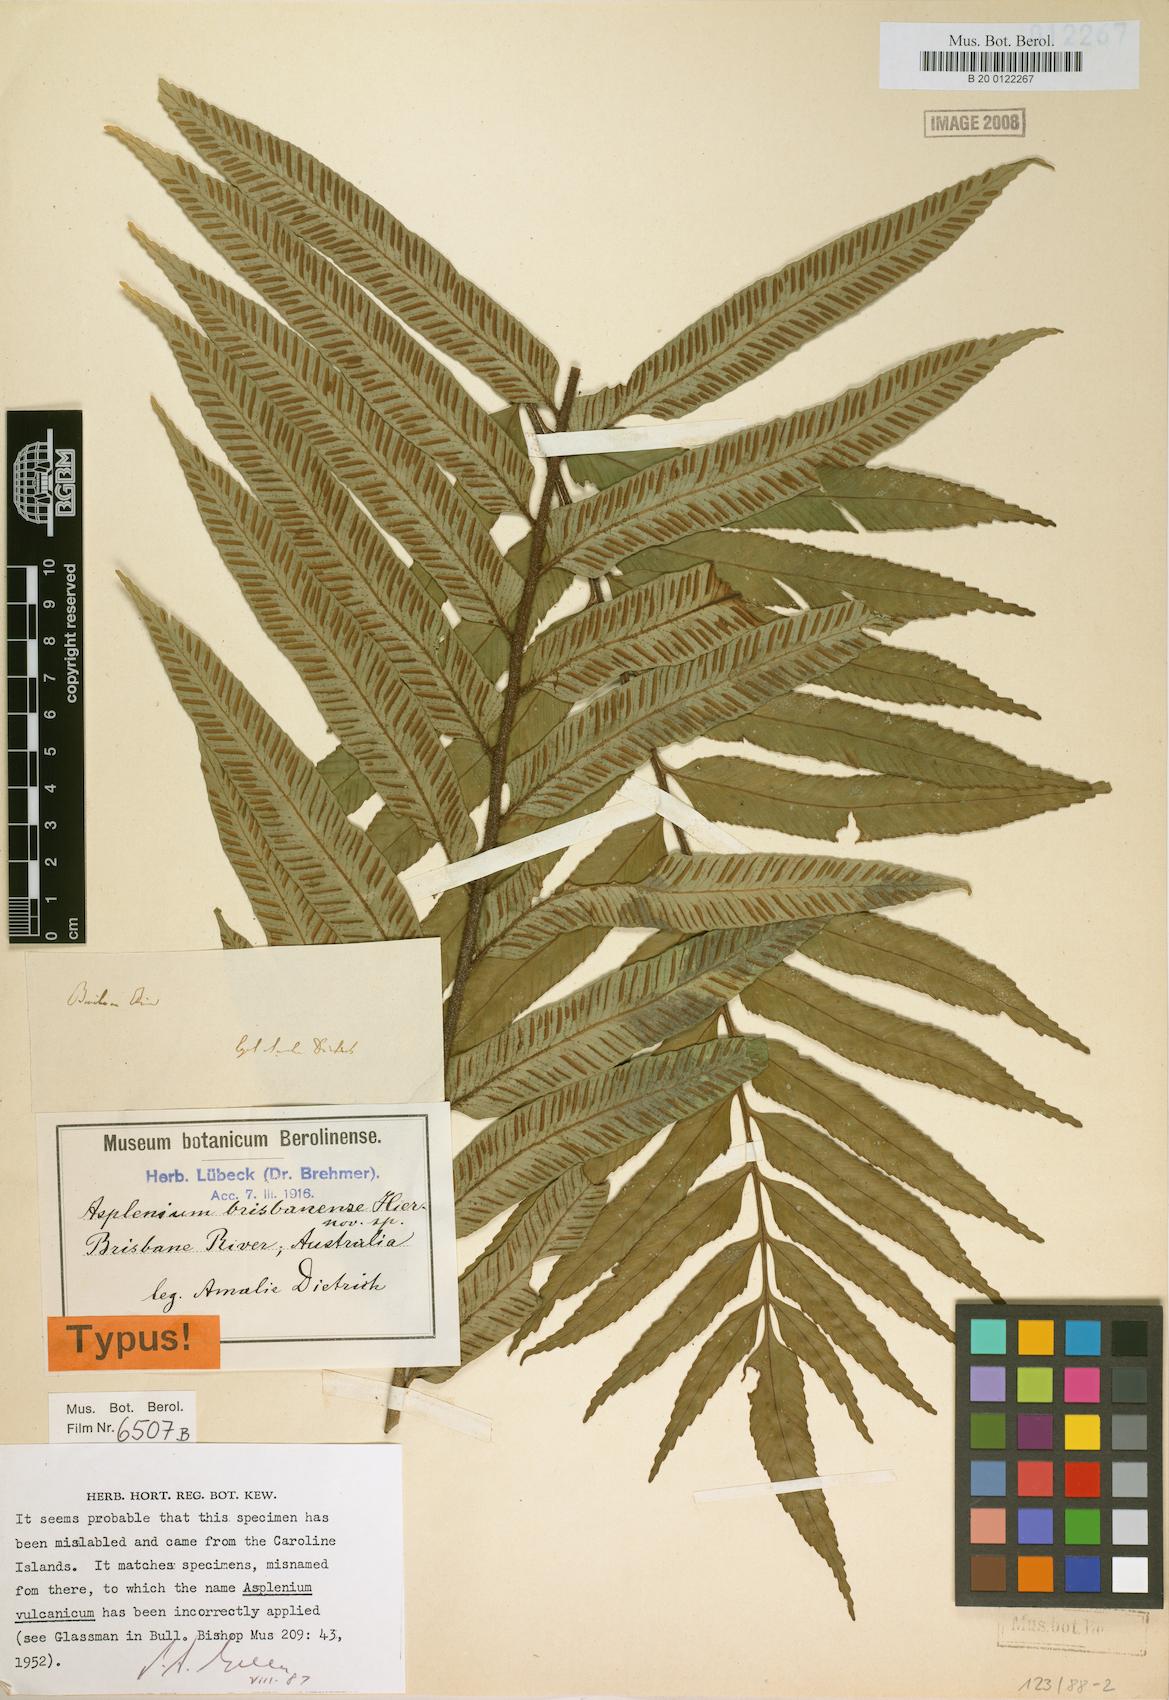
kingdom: Plantae
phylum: Tracheophyta
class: Polypodiopsida
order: Polypodiales
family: Aspleniaceae
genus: Asplenium
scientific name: Asplenium vulcanicum
